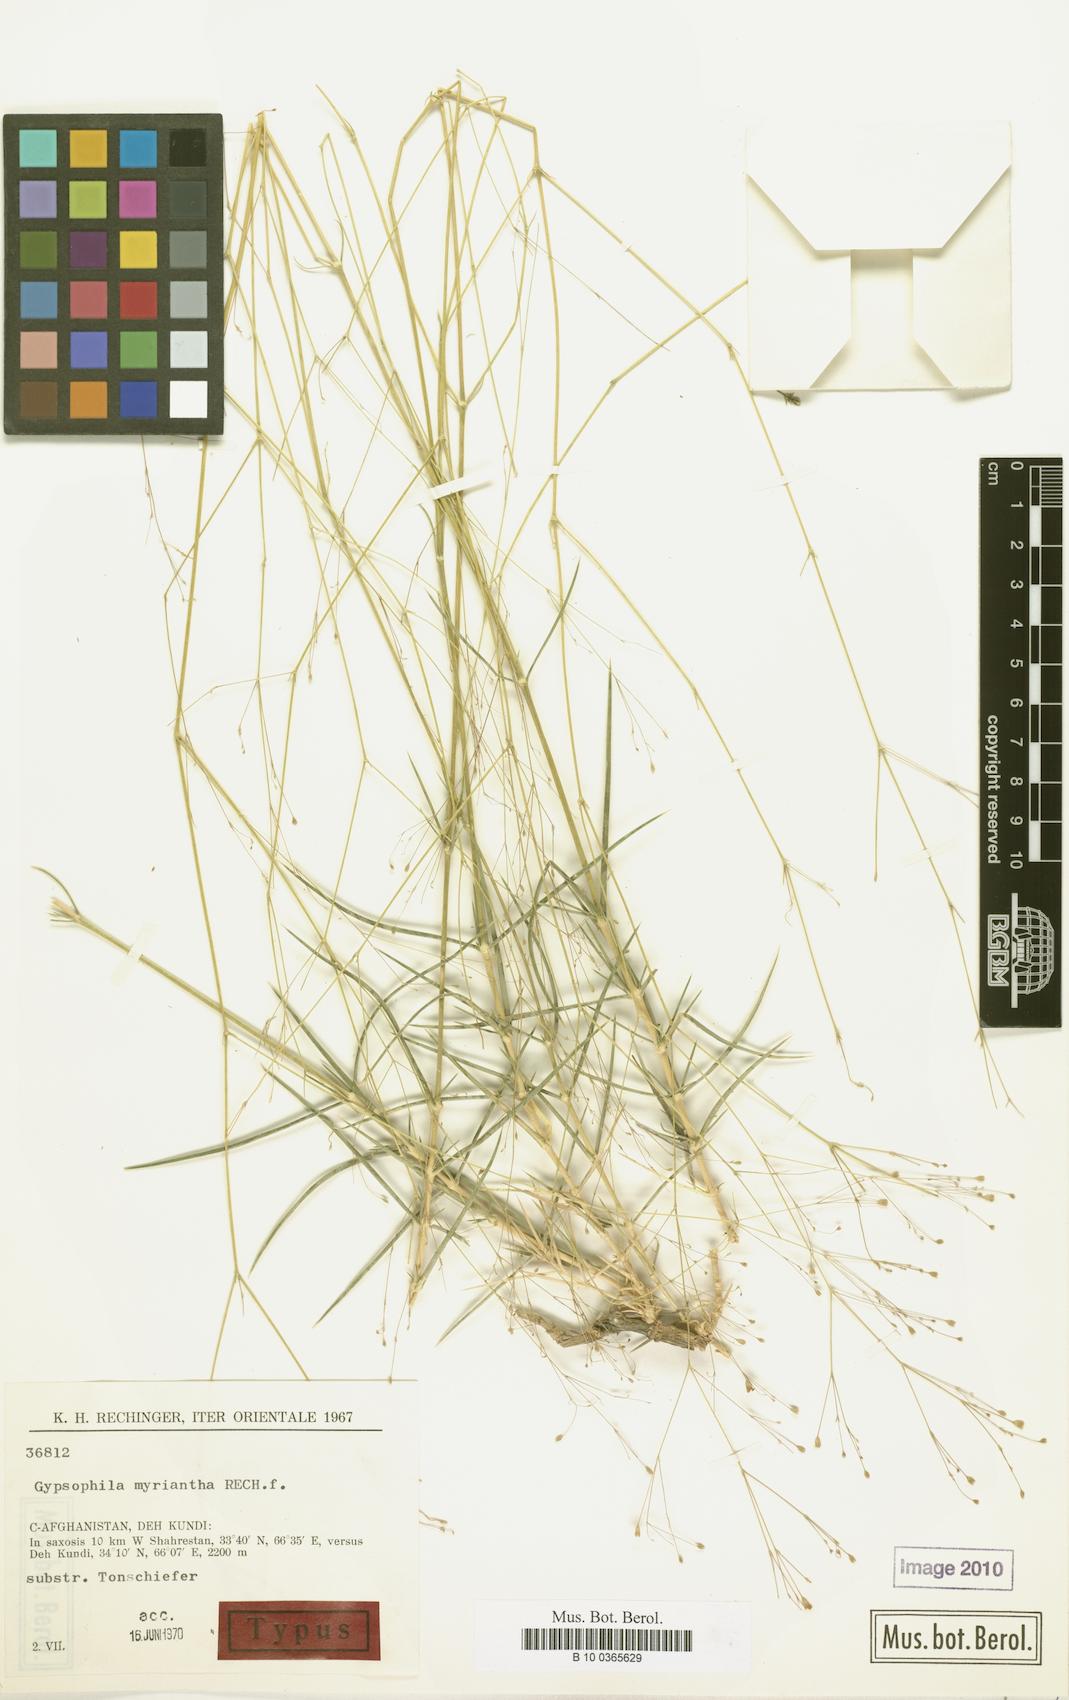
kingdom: Plantae
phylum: Tracheophyta
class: Magnoliopsida
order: Caryophyllales
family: Caryophyllaceae
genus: Acanthophyllum
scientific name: Acanthophyllum myrianthum
